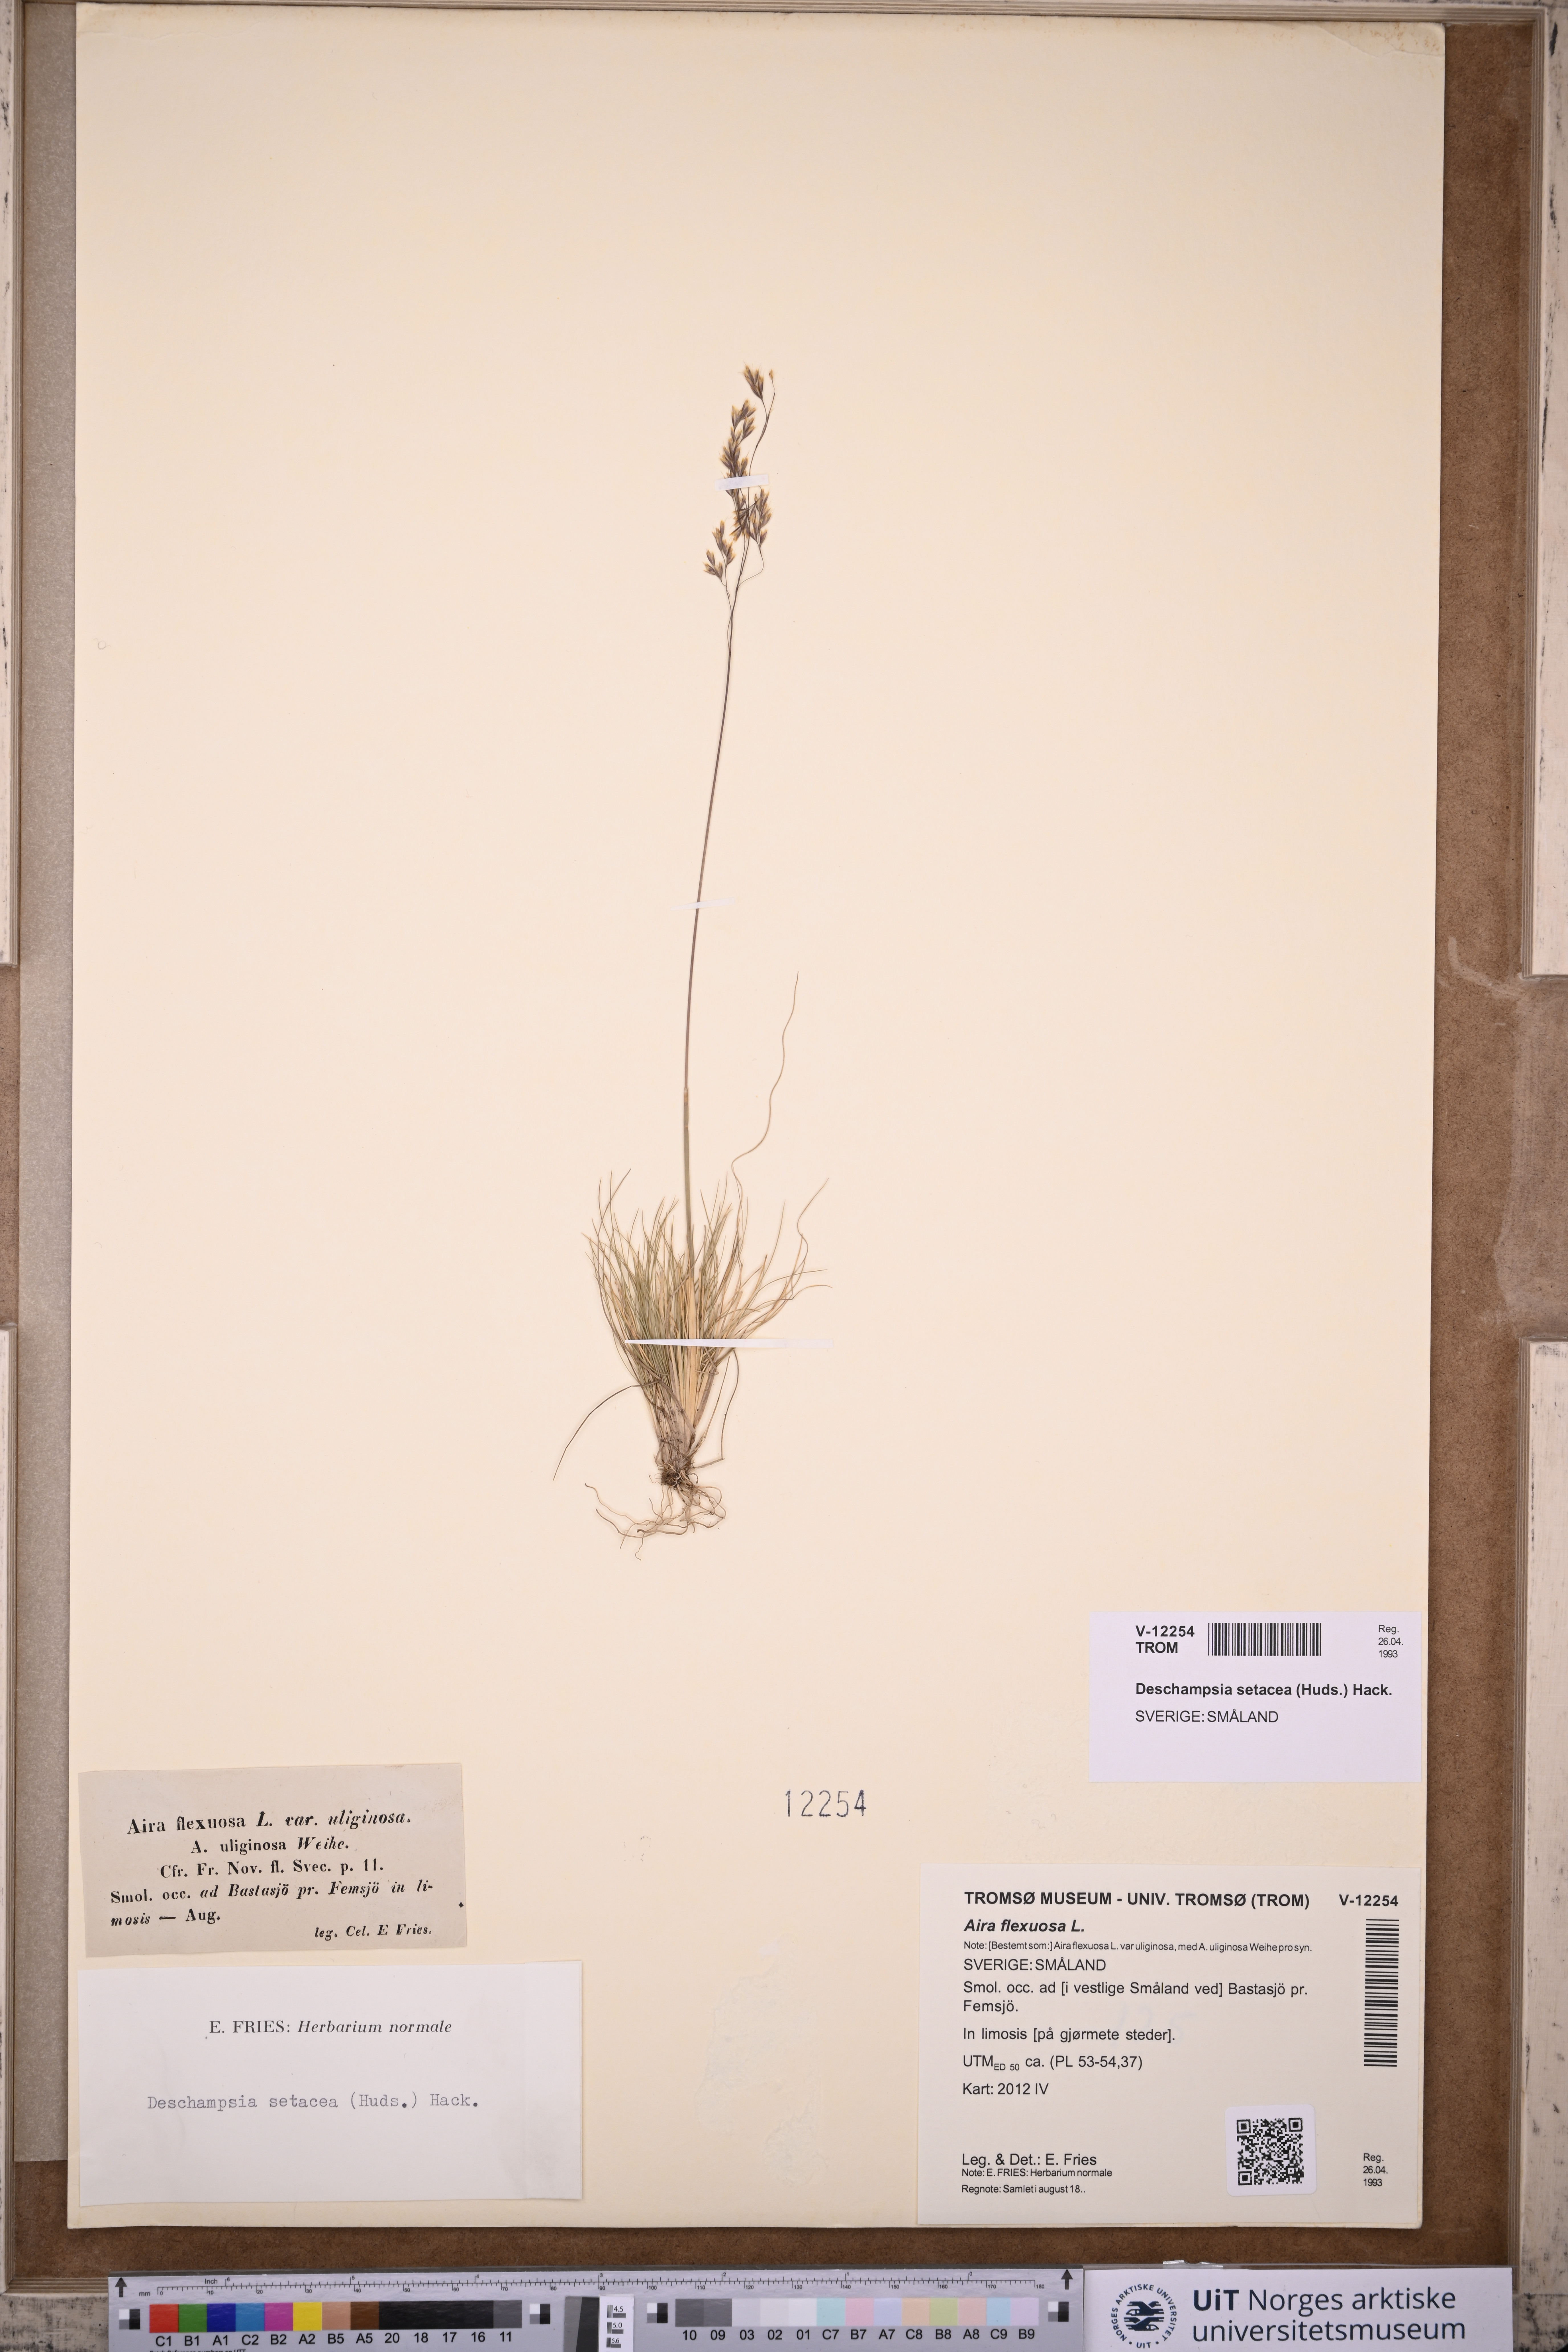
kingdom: Plantae
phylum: Tracheophyta
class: Liliopsida
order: Poales
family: Poaceae
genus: Deschampsia
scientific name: Deschampsia setacea
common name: Bog hair-grass
